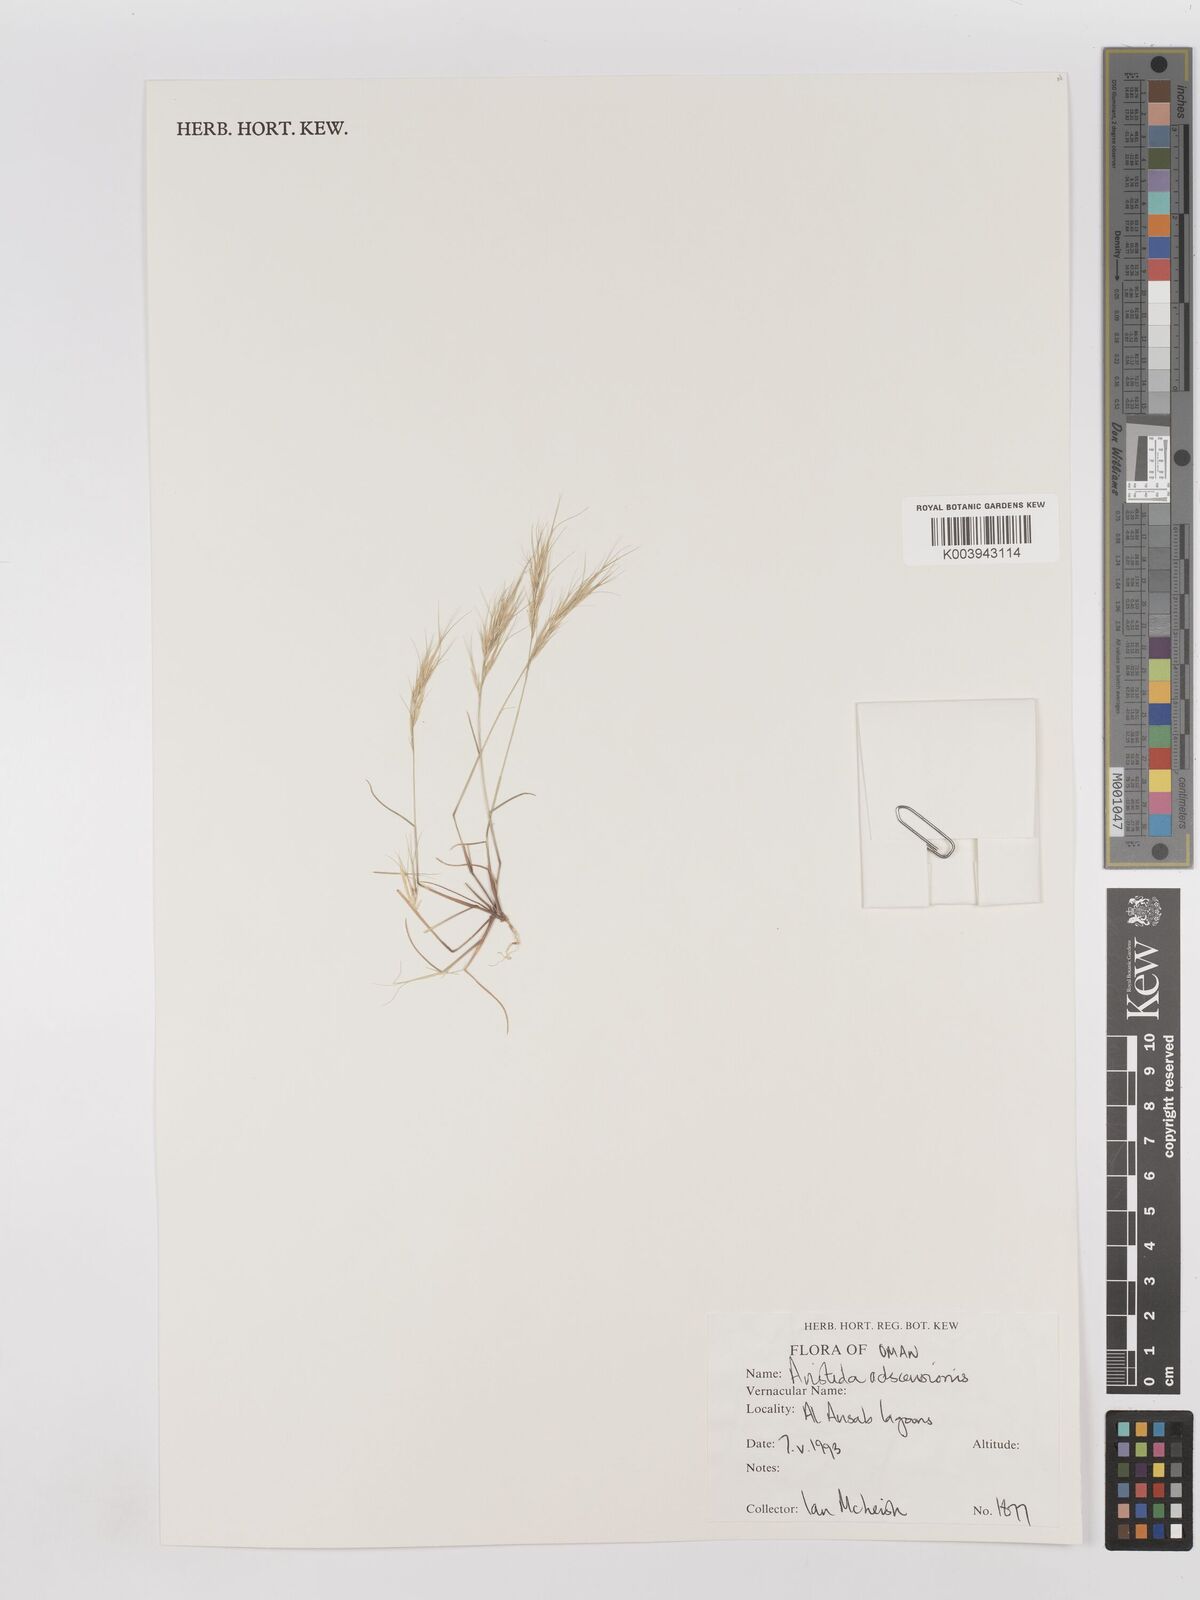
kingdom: Plantae
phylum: Tracheophyta
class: Liliopsida
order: Poales
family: Poaceae
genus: Aristida
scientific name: Aristida adscensionis
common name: Sixweeks threeawn
